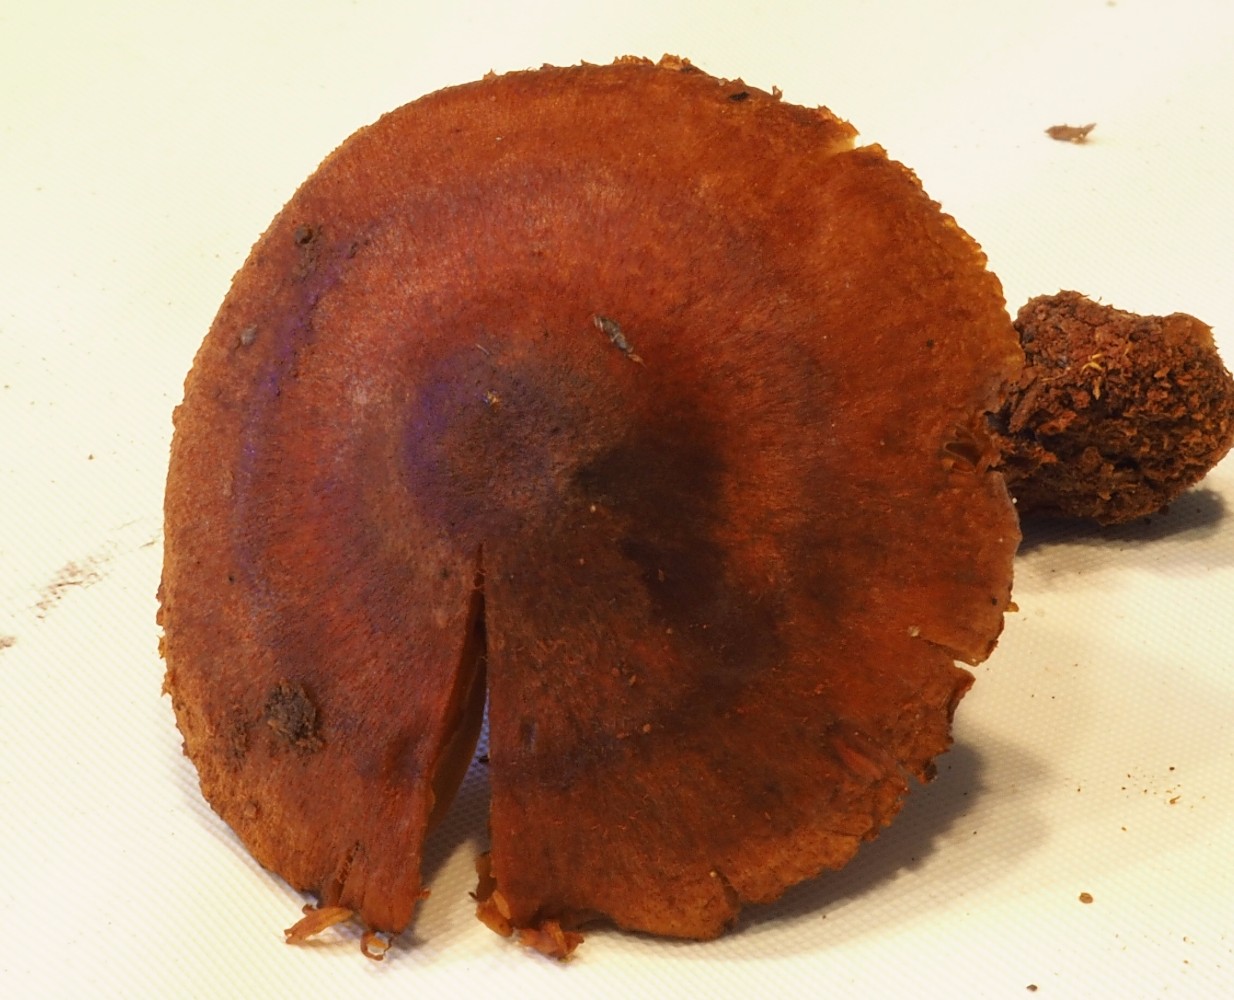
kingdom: Fungi
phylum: Basidiomycota
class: Agaricomycetes
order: Agaricales
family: Cortinariaceae
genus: Cortinarius
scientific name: Cortinarius cinnamomeus
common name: kanel-slørhat
